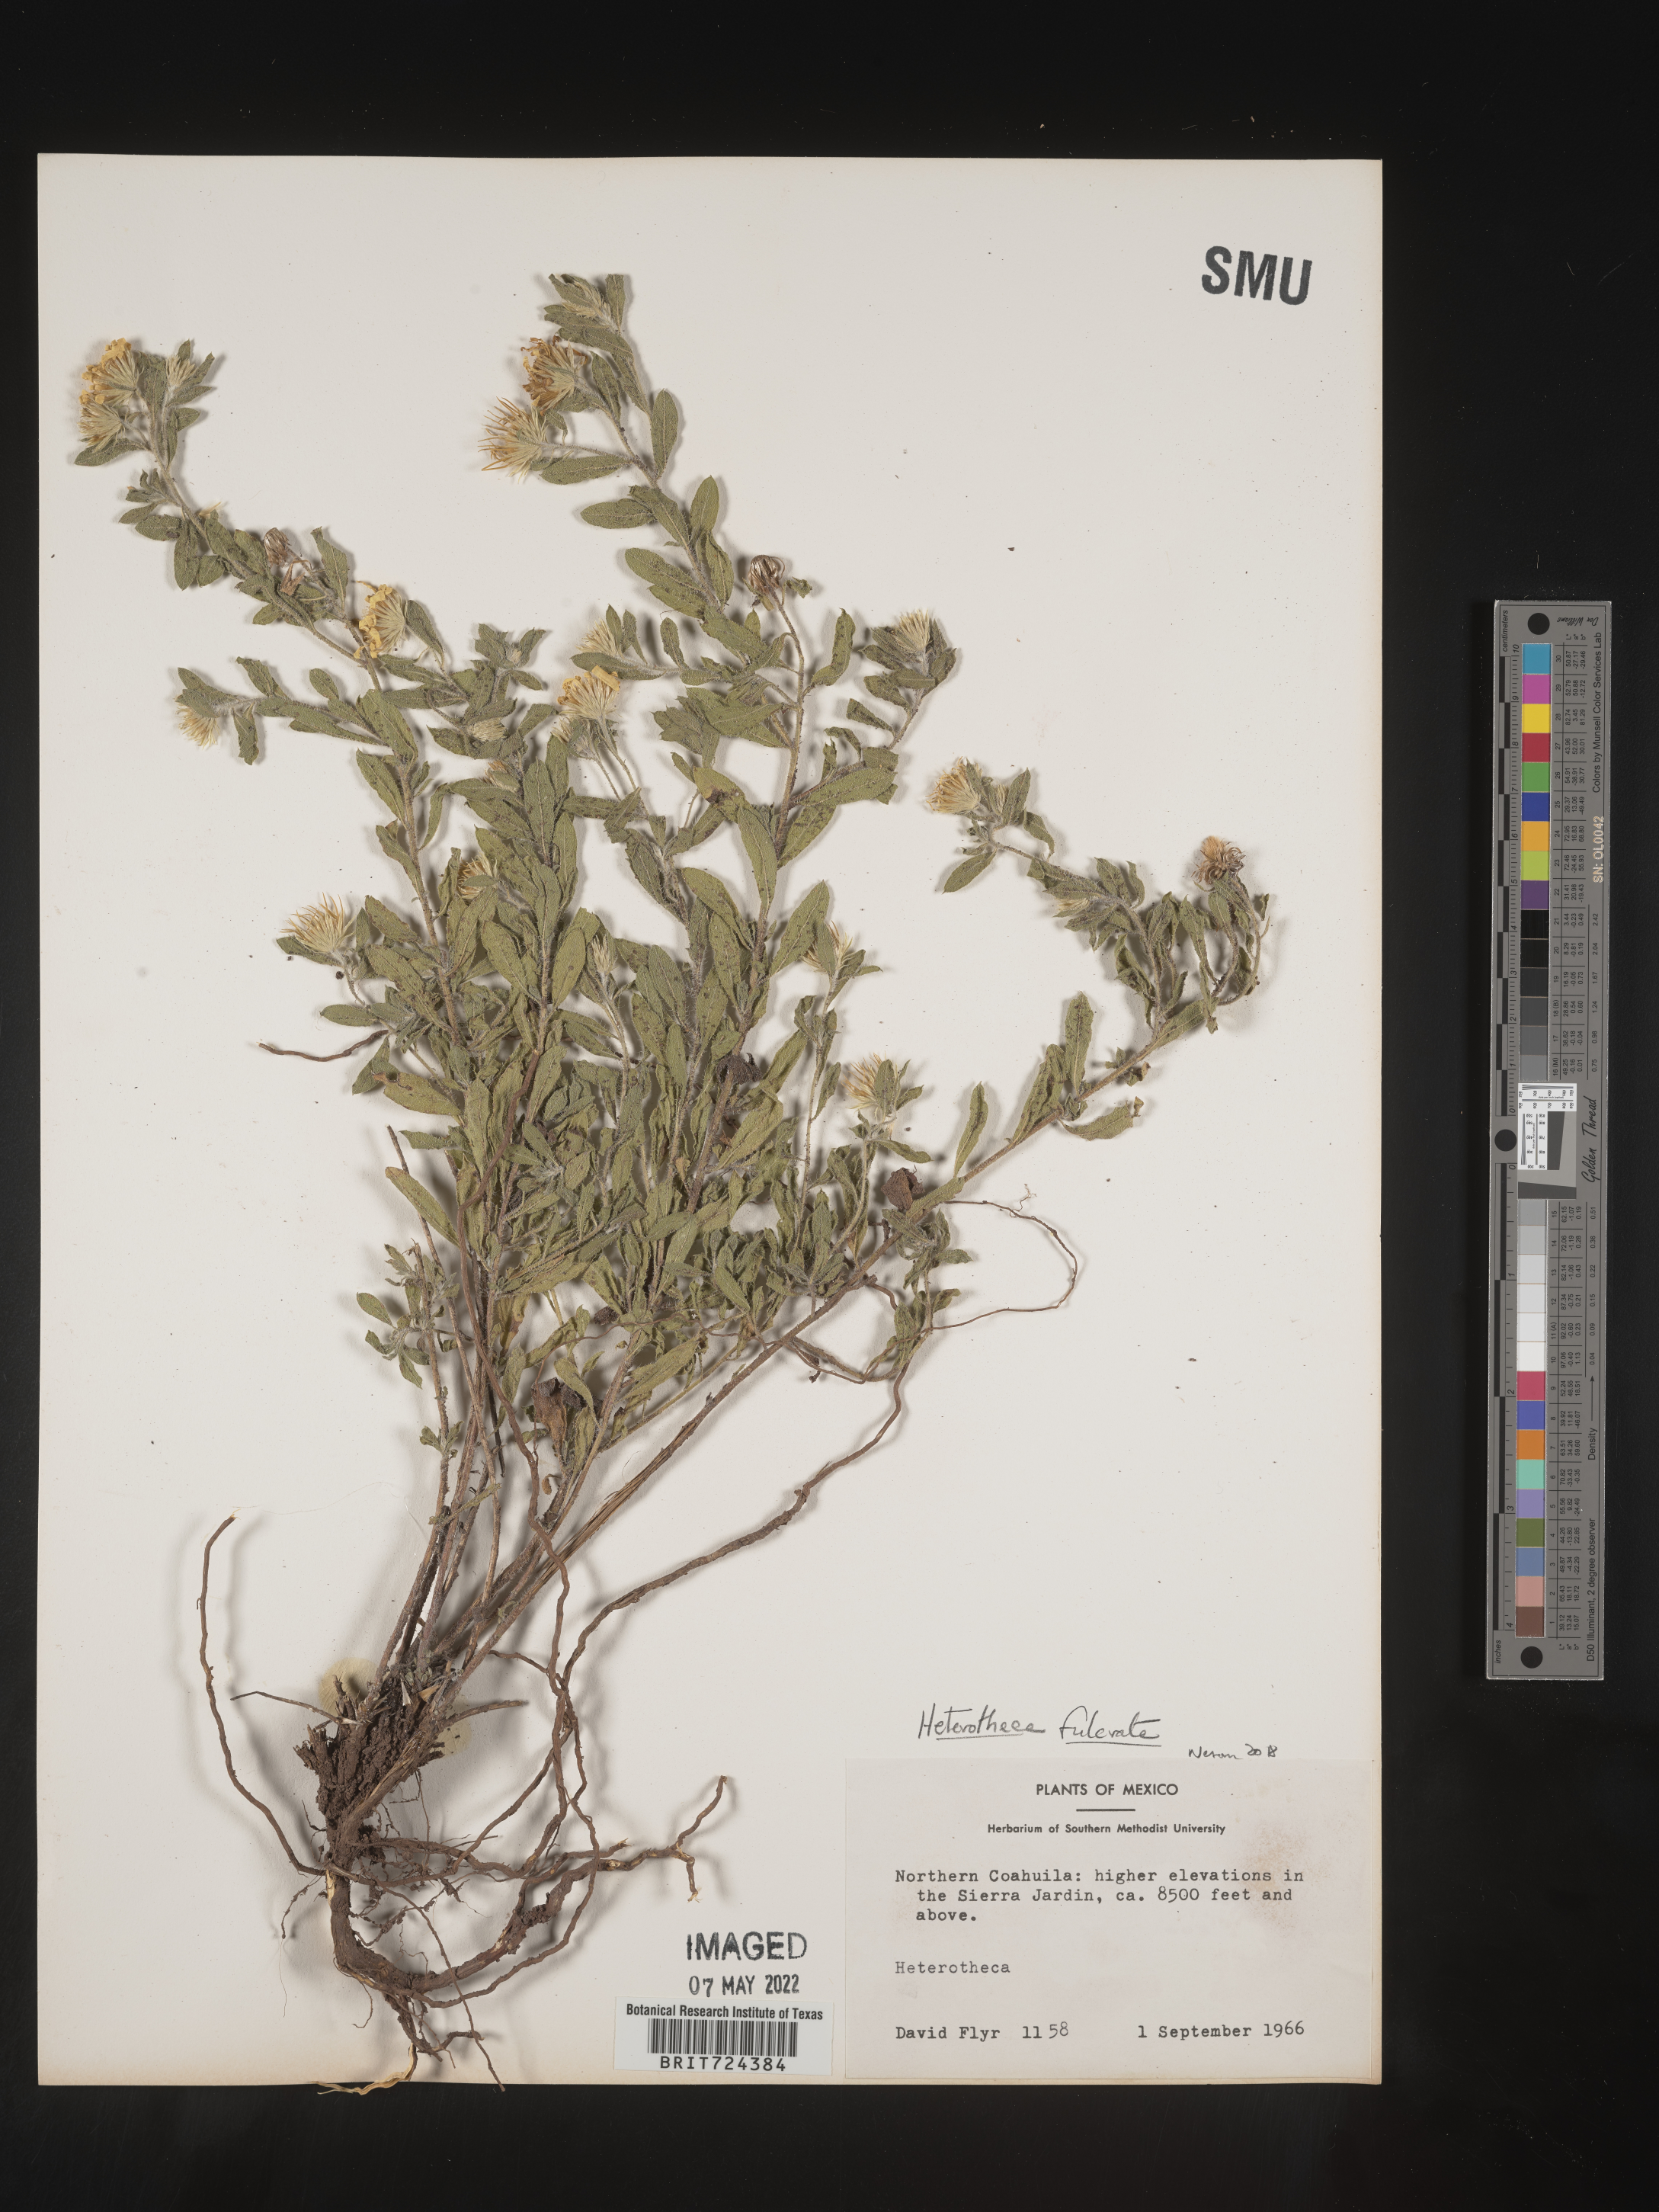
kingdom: Plantae
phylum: Tracheophyta
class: Magnoliopsida
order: Asterales
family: Asteraceae
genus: Heterotheca
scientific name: Heterotheca fulcrata
